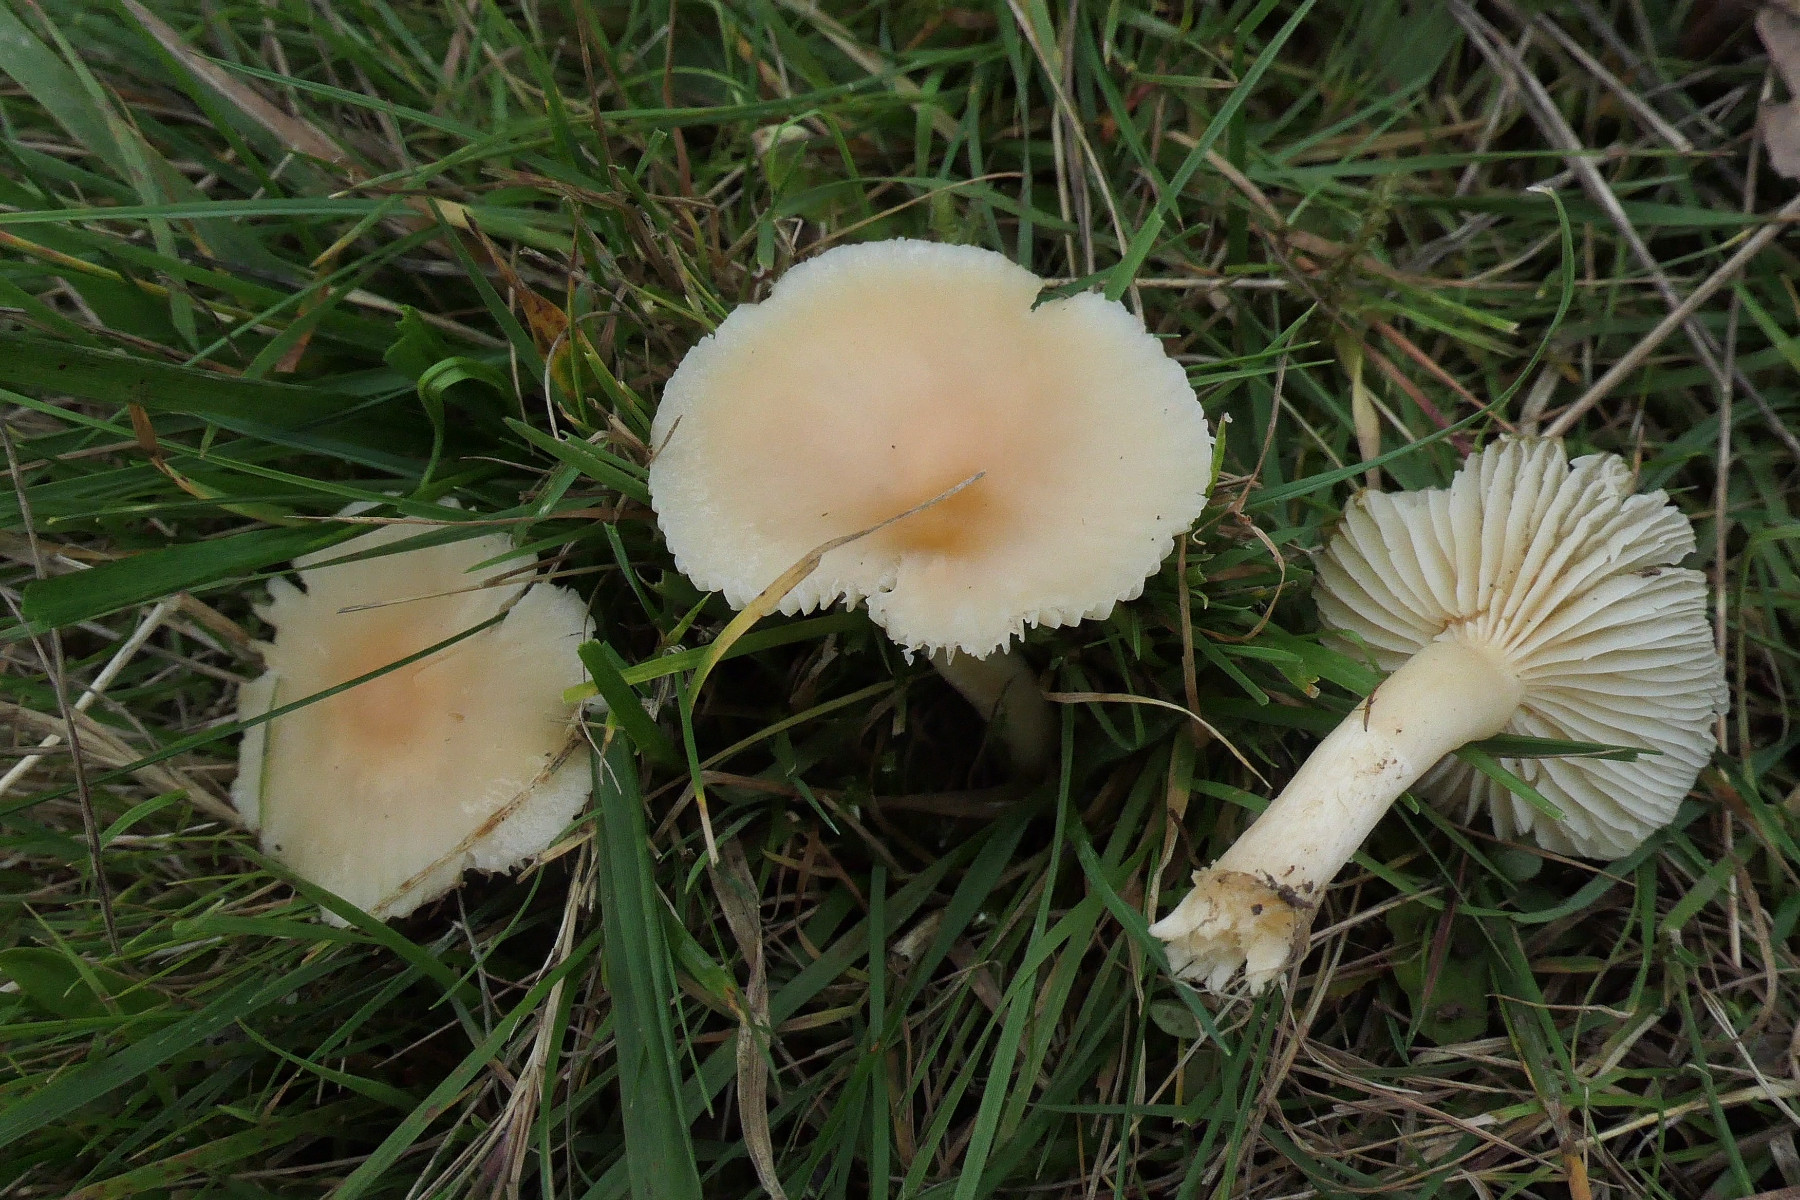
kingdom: Fungi
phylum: Basidiomycota
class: Agaricomycetes
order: Agaricales
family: Hygrophoraceae
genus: Cuphophyllus
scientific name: Cuphophyllus pratensis
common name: eng-vokshat
